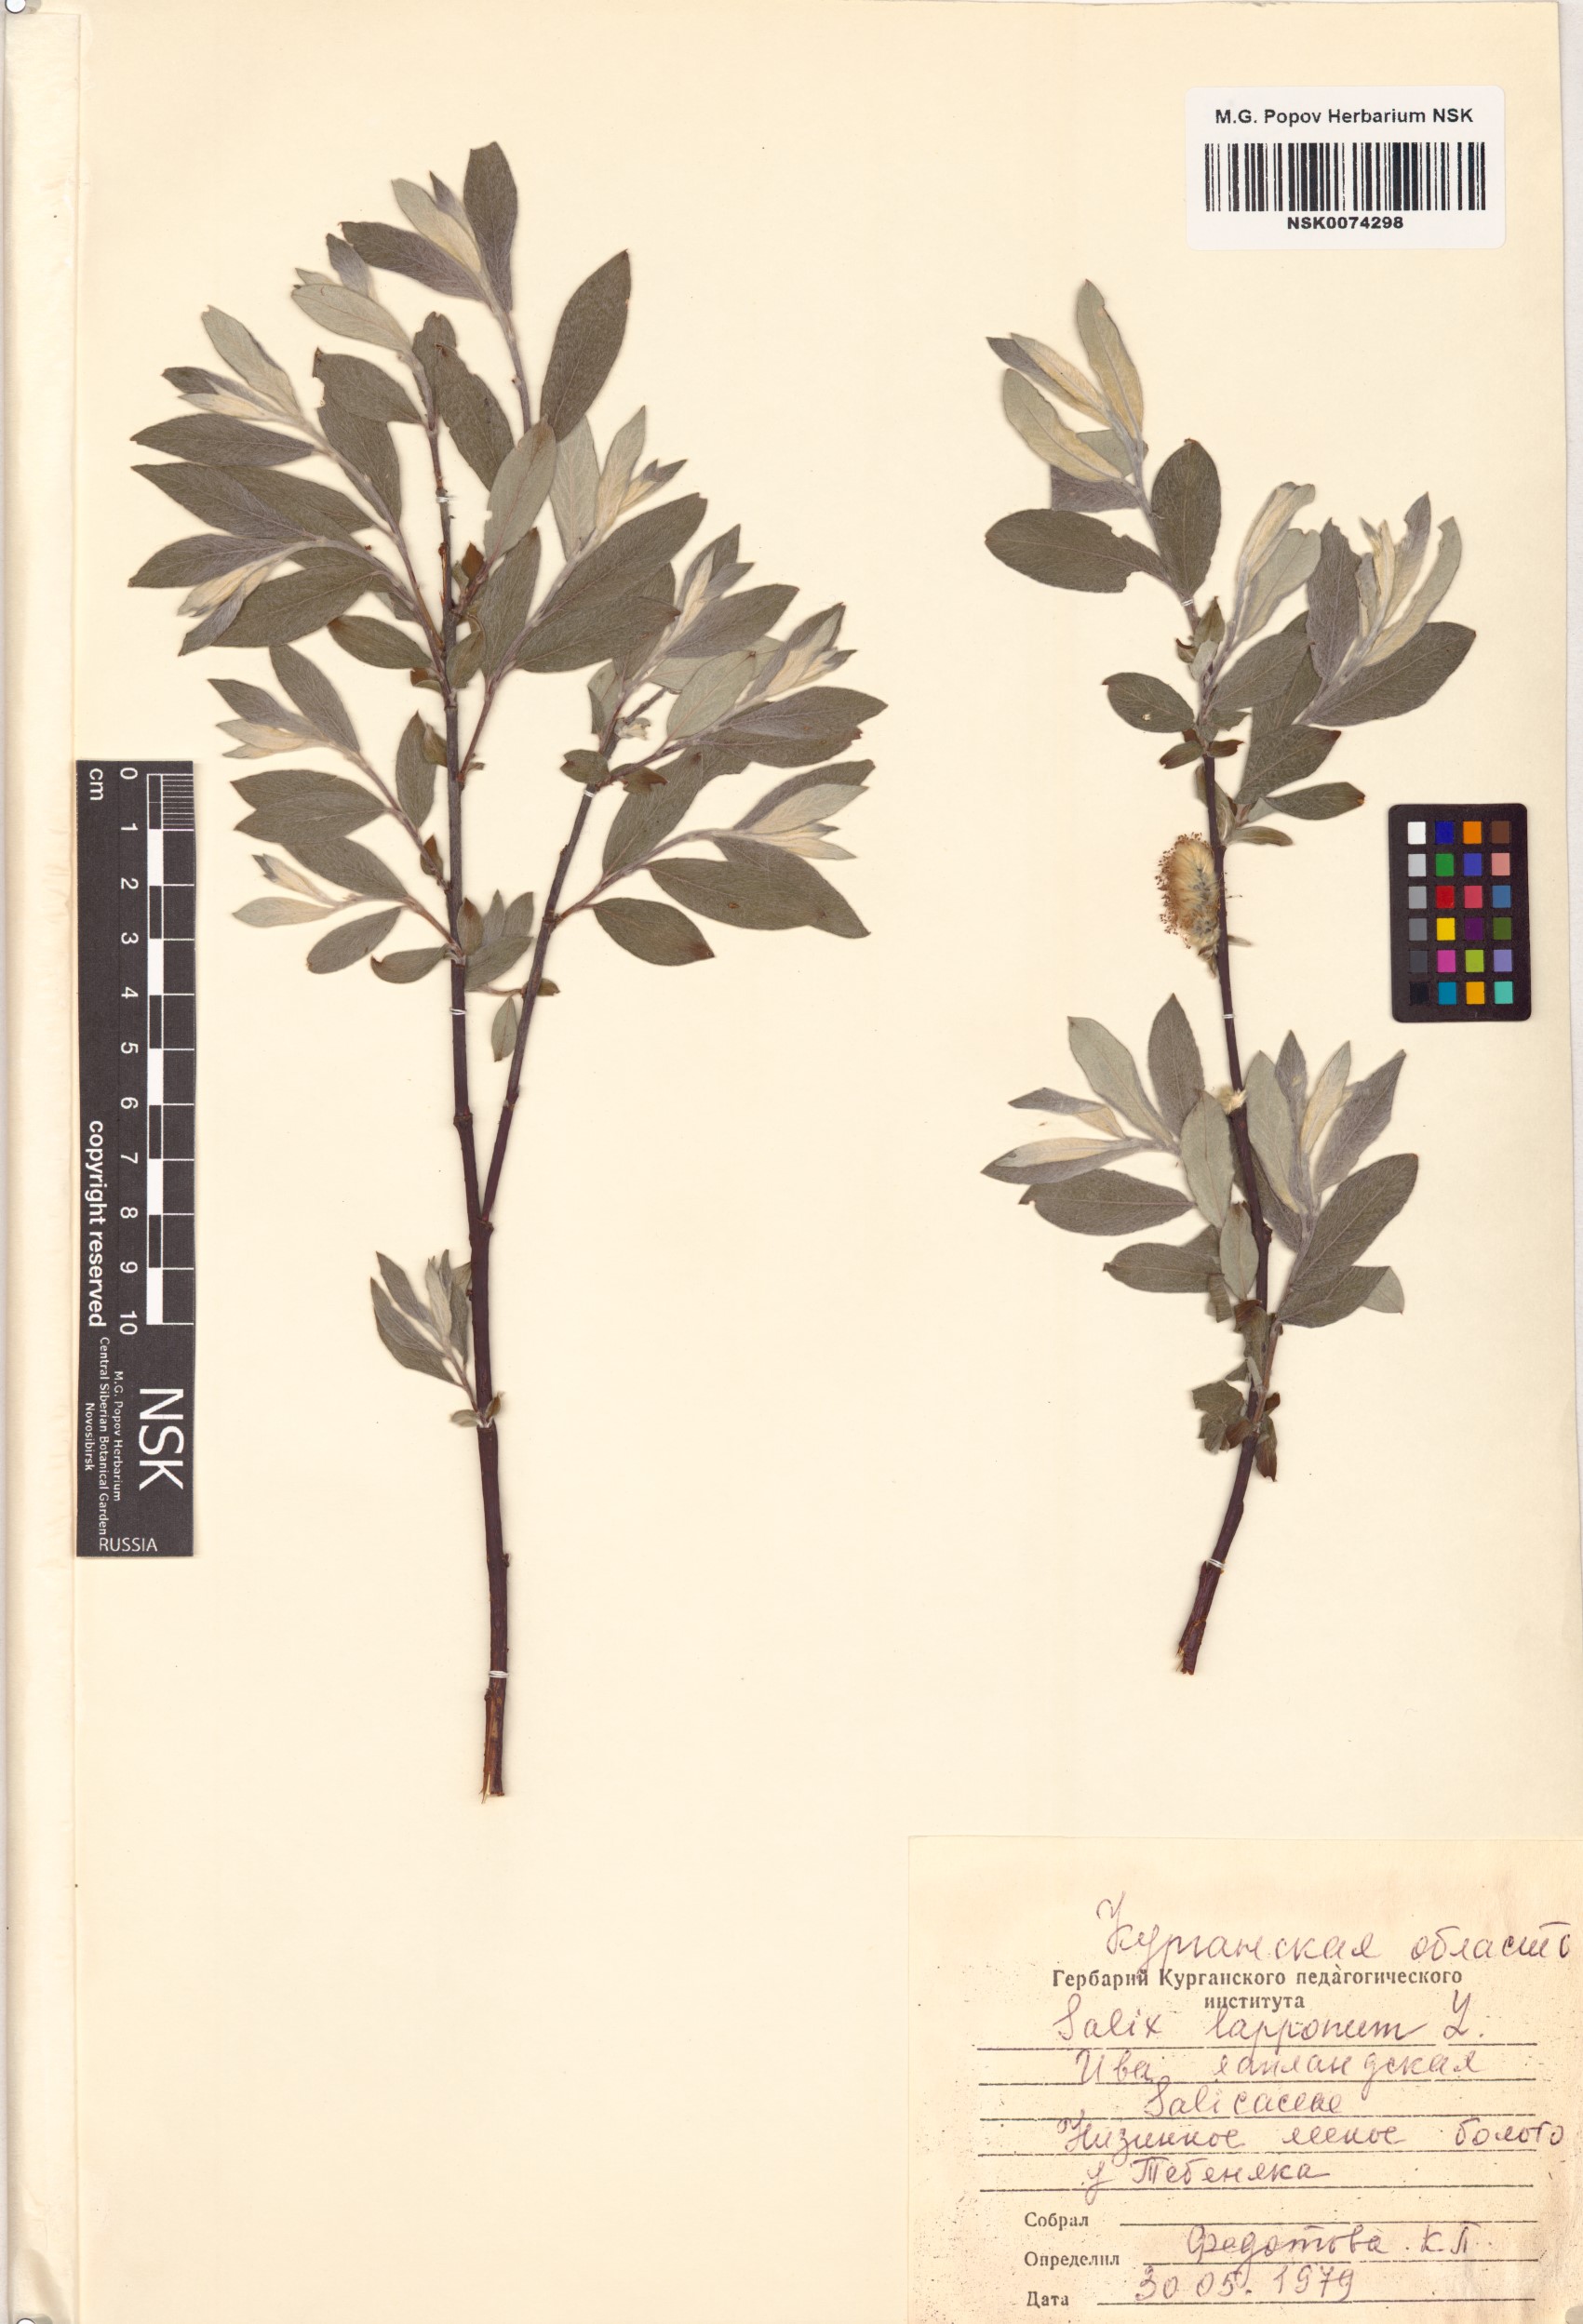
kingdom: Plantae
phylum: Tracheophyta
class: Magnoliopsida
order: Malpighiales
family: Salicaceae
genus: Salix
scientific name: Salix lapponum
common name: Downy willow
